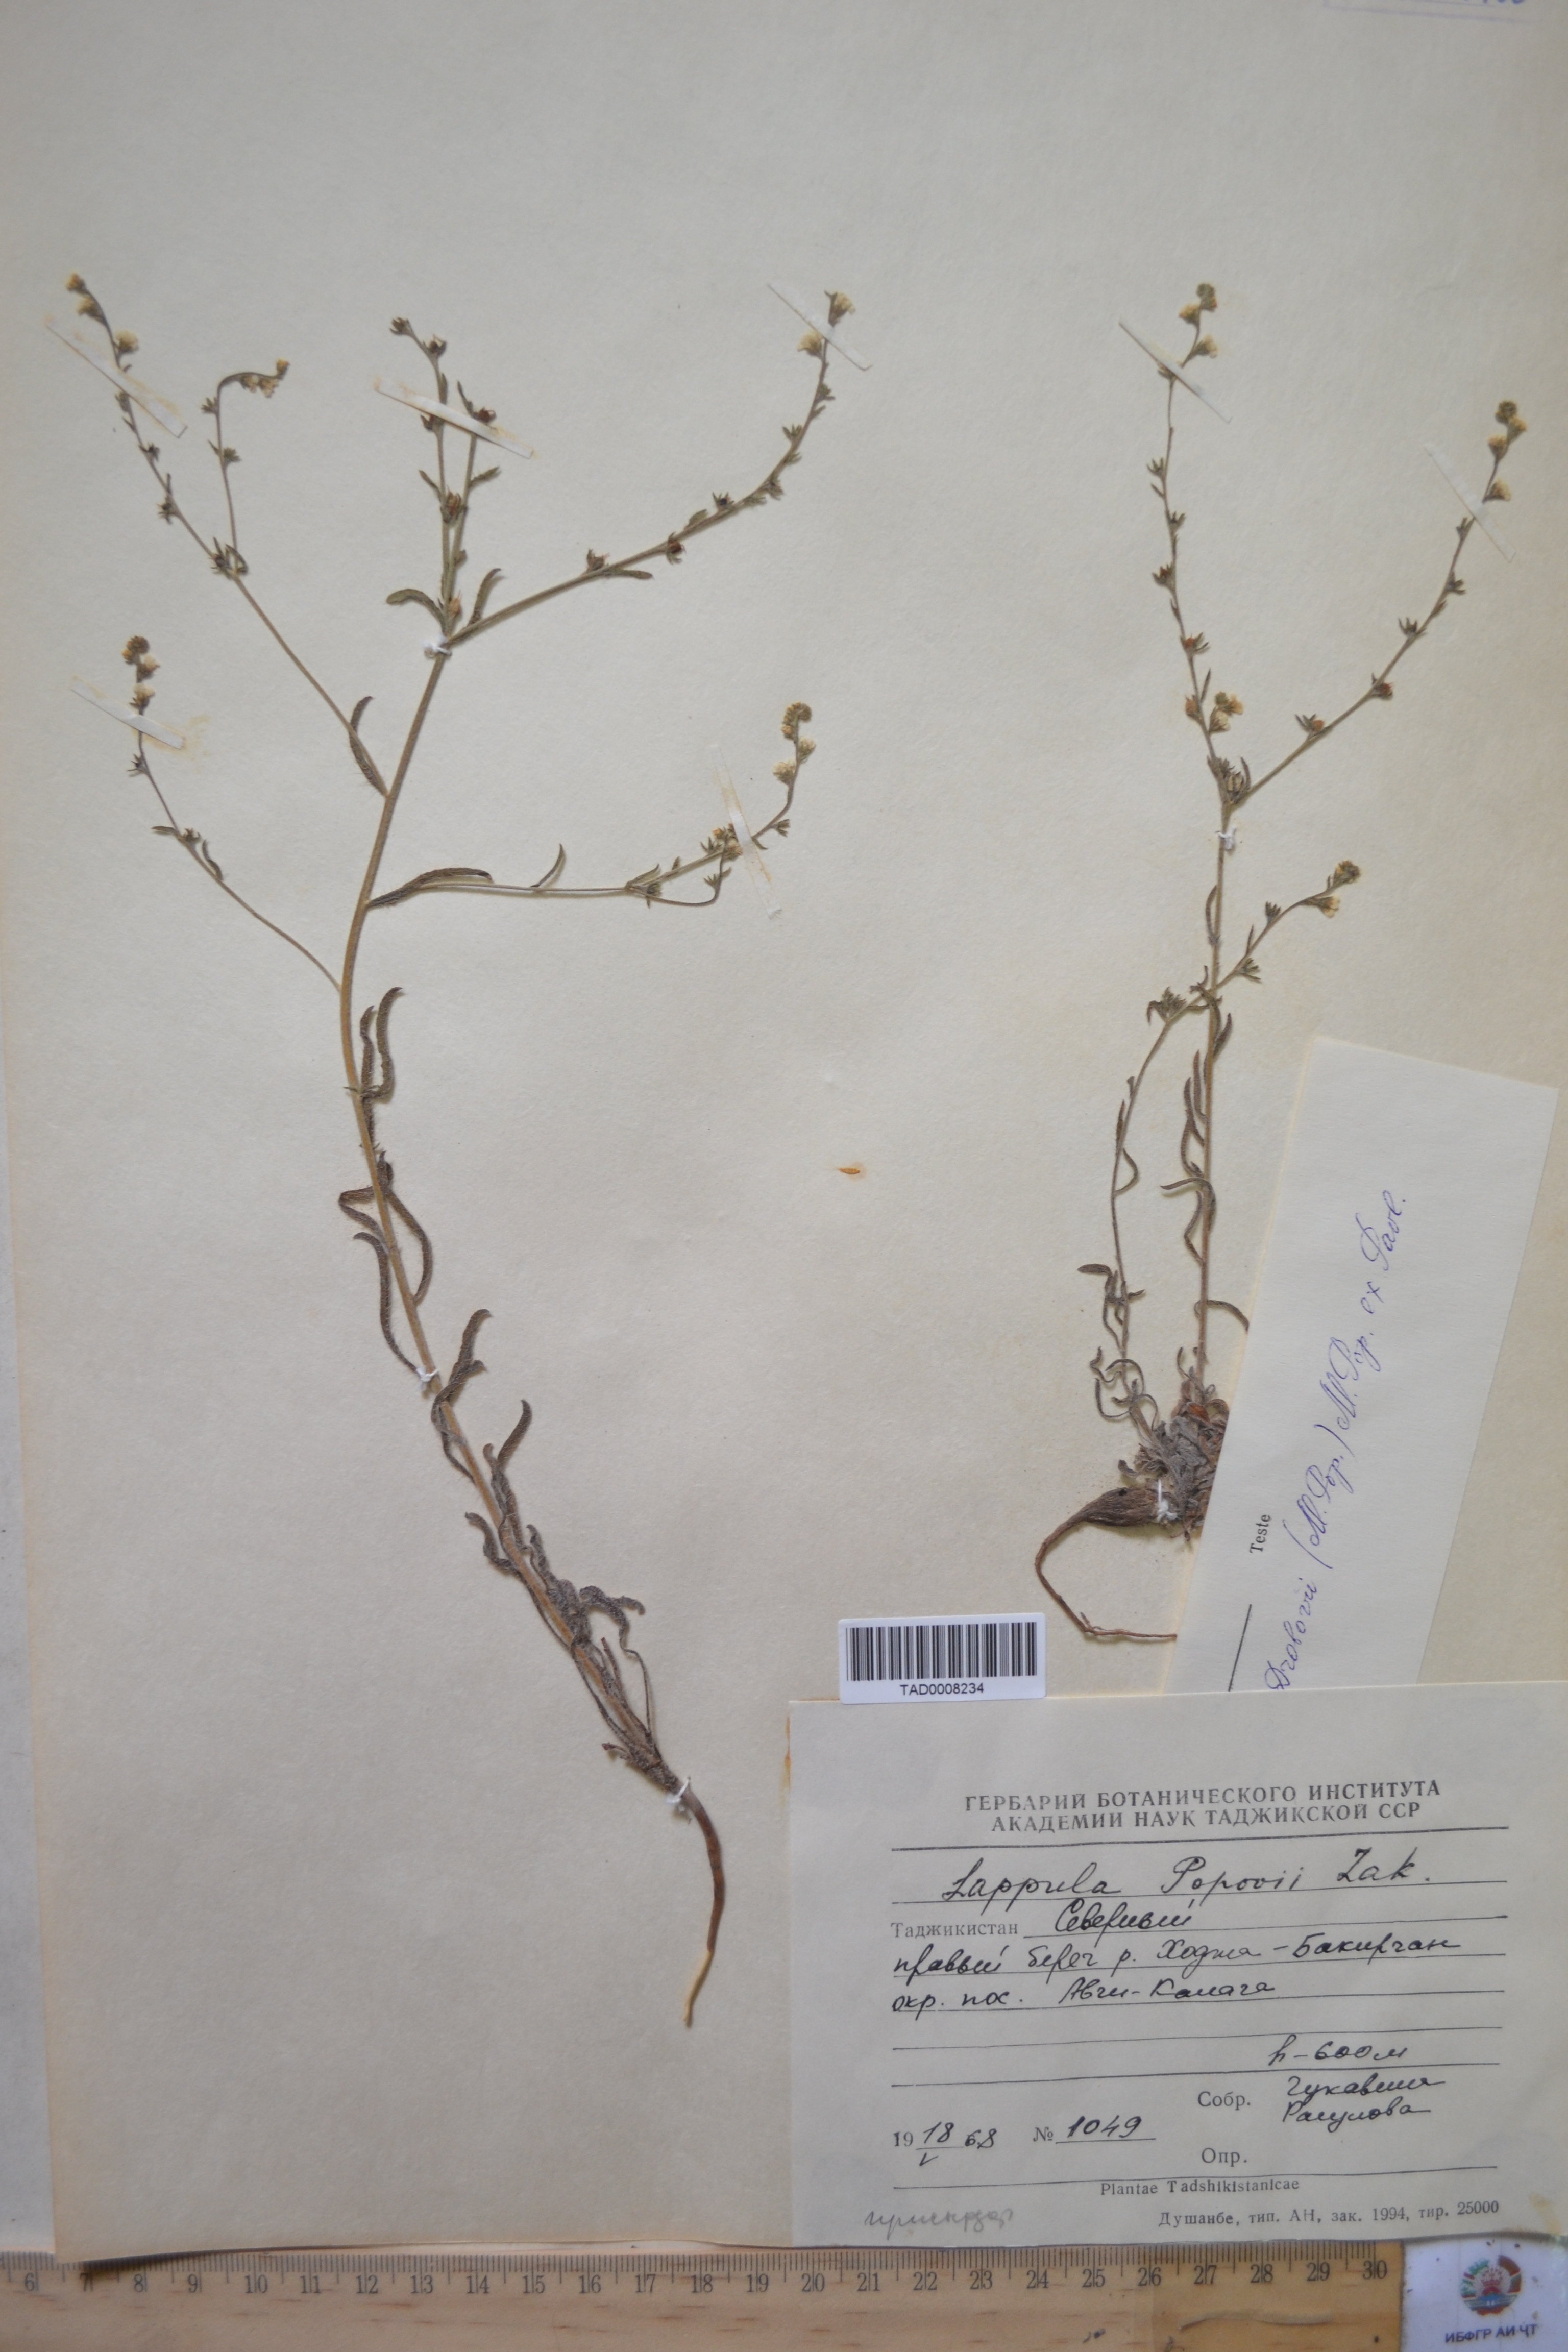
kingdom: Plantae
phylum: Tracheophyta
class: Magnoliopsida
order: Boraginales
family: Boraginaceae
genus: Lappula
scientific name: Lappula popovii
